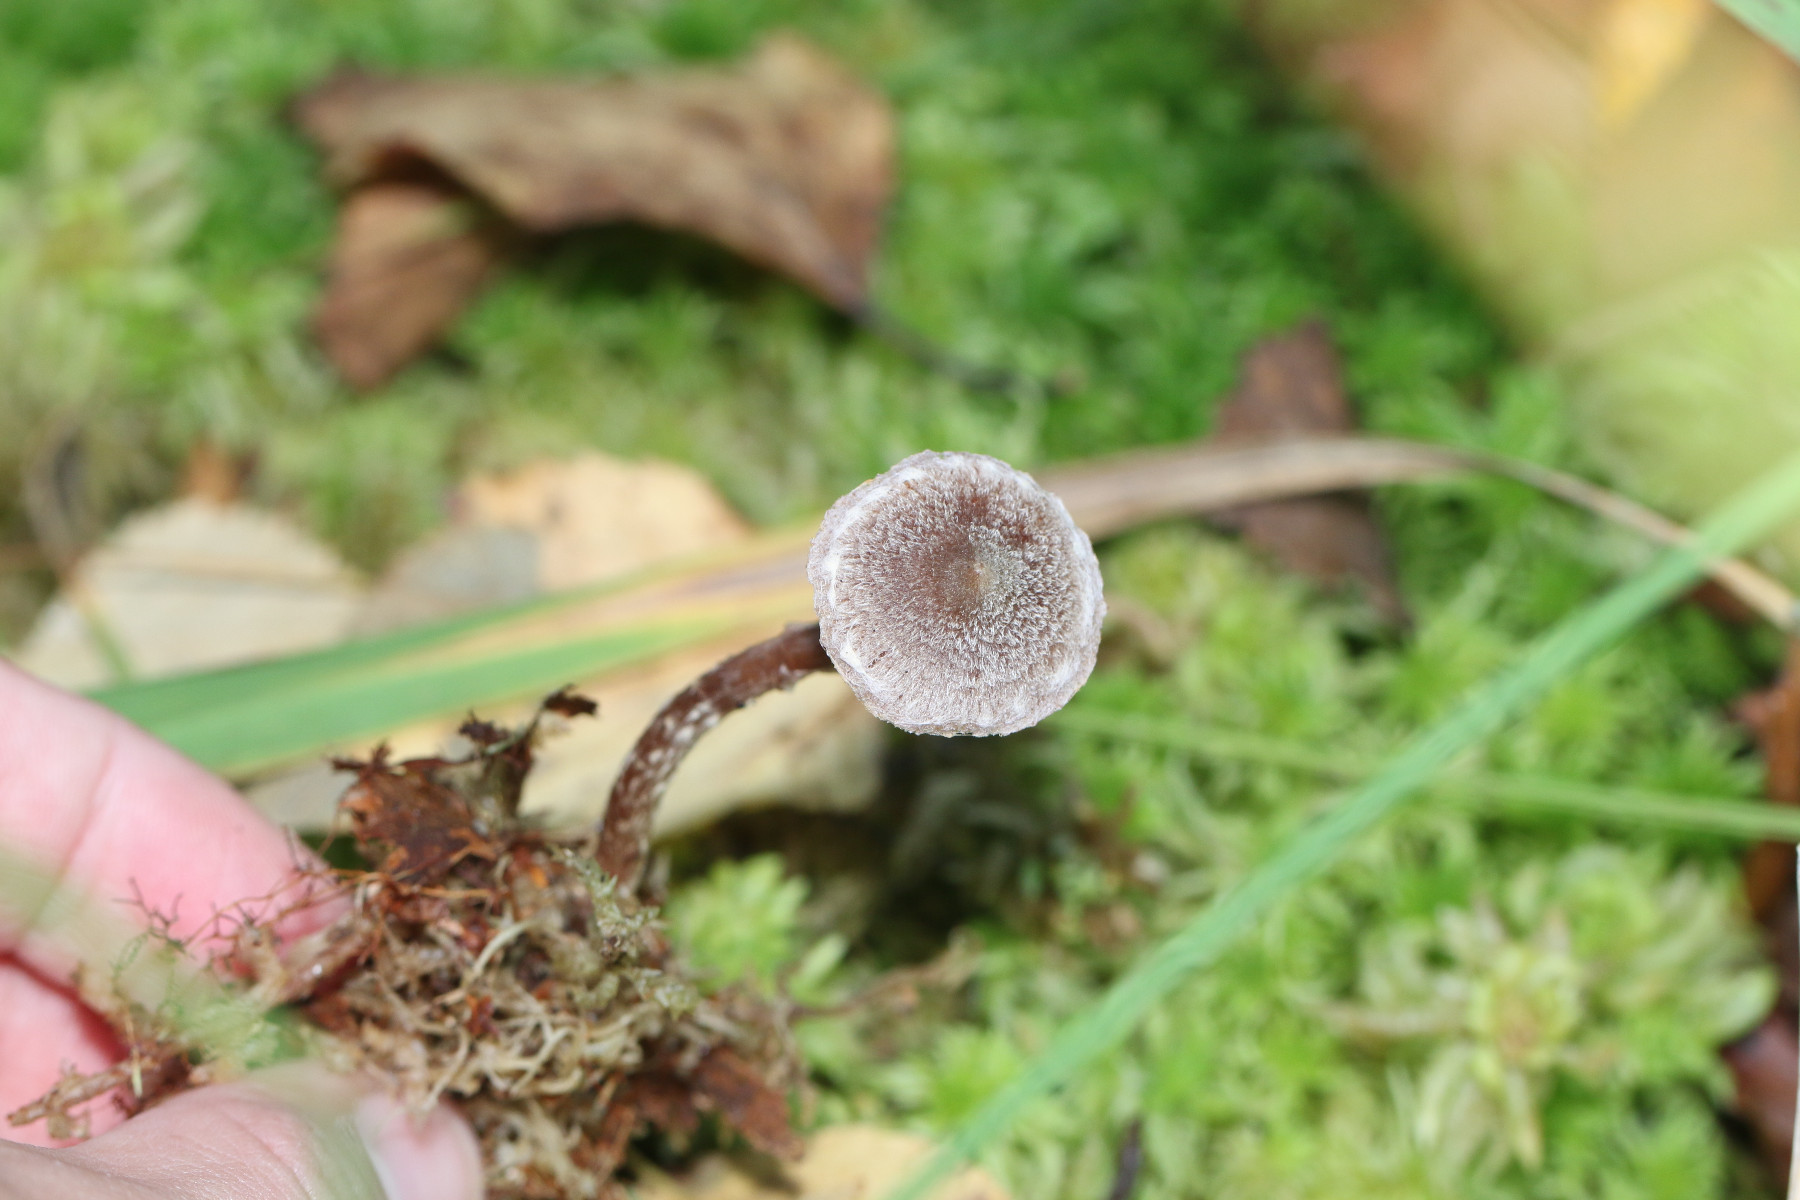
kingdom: Fungi
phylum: Basidiomycota
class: Agaricomycetes
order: Agaricales
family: Cortinariaceae
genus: Cortinarius
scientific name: Cortinarius hemitrichus
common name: hvidfnugget slørhat
